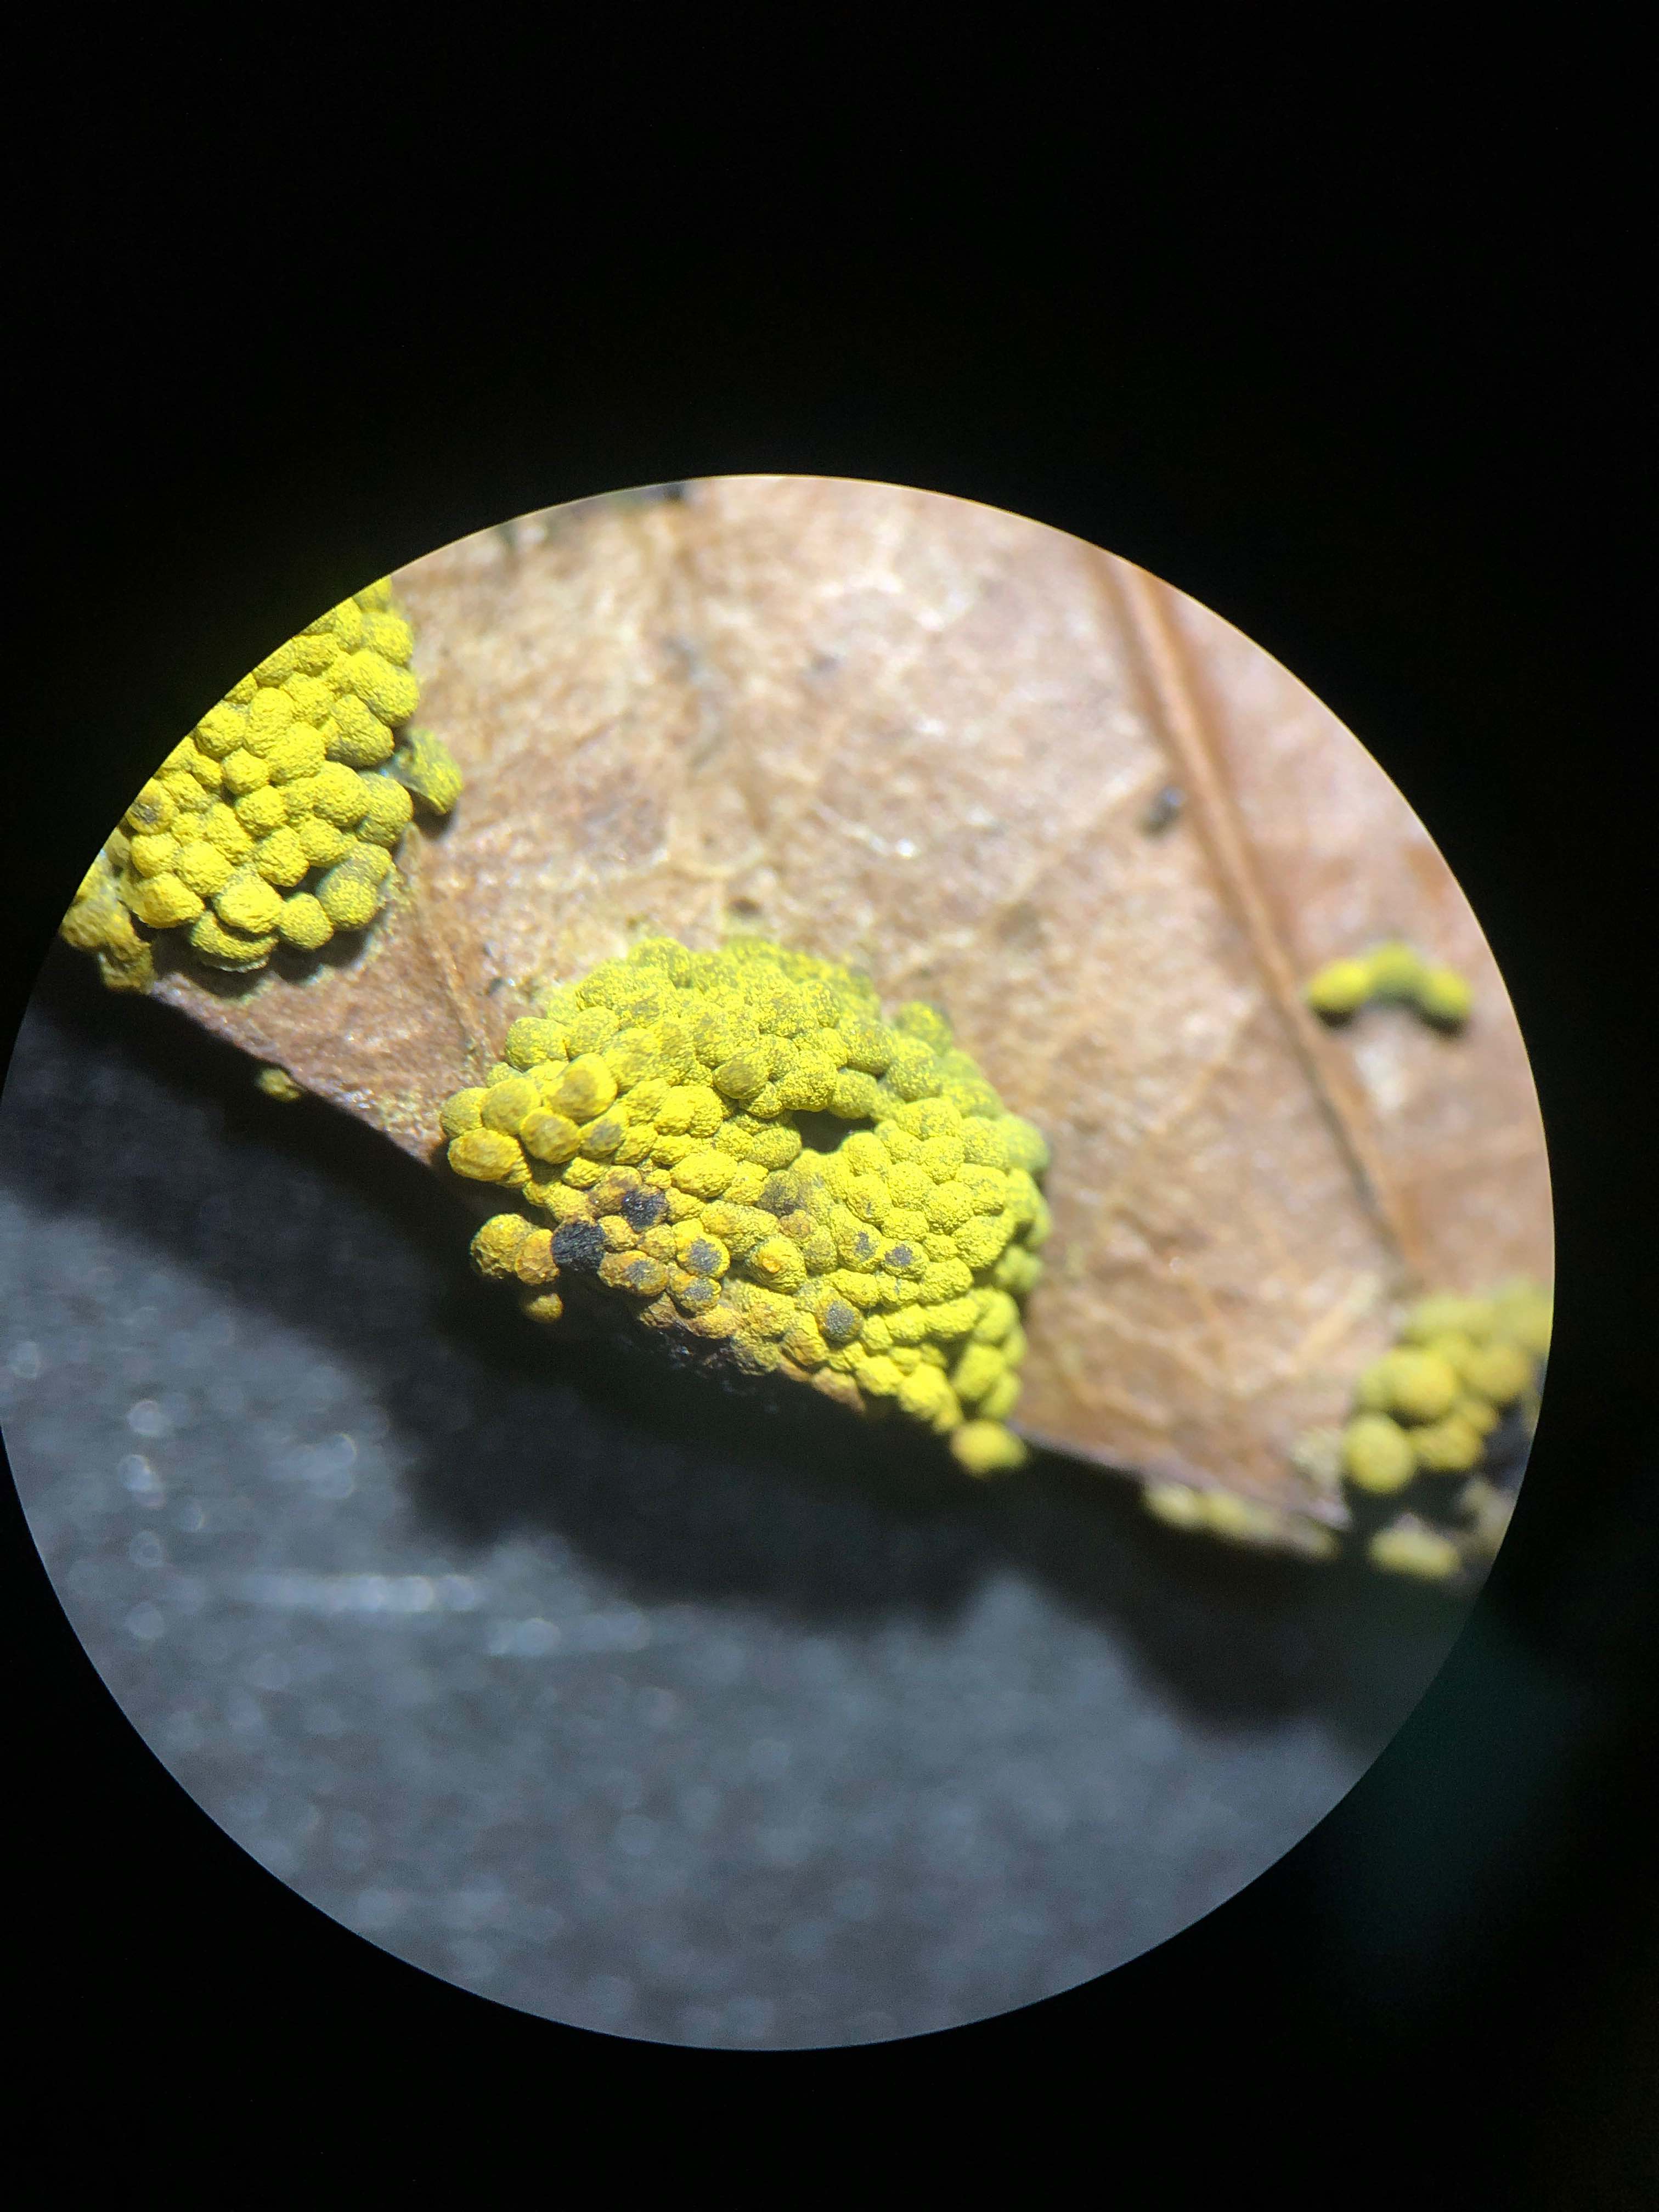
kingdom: Protozoa
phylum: Mycetozoa
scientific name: Mycetozoa
